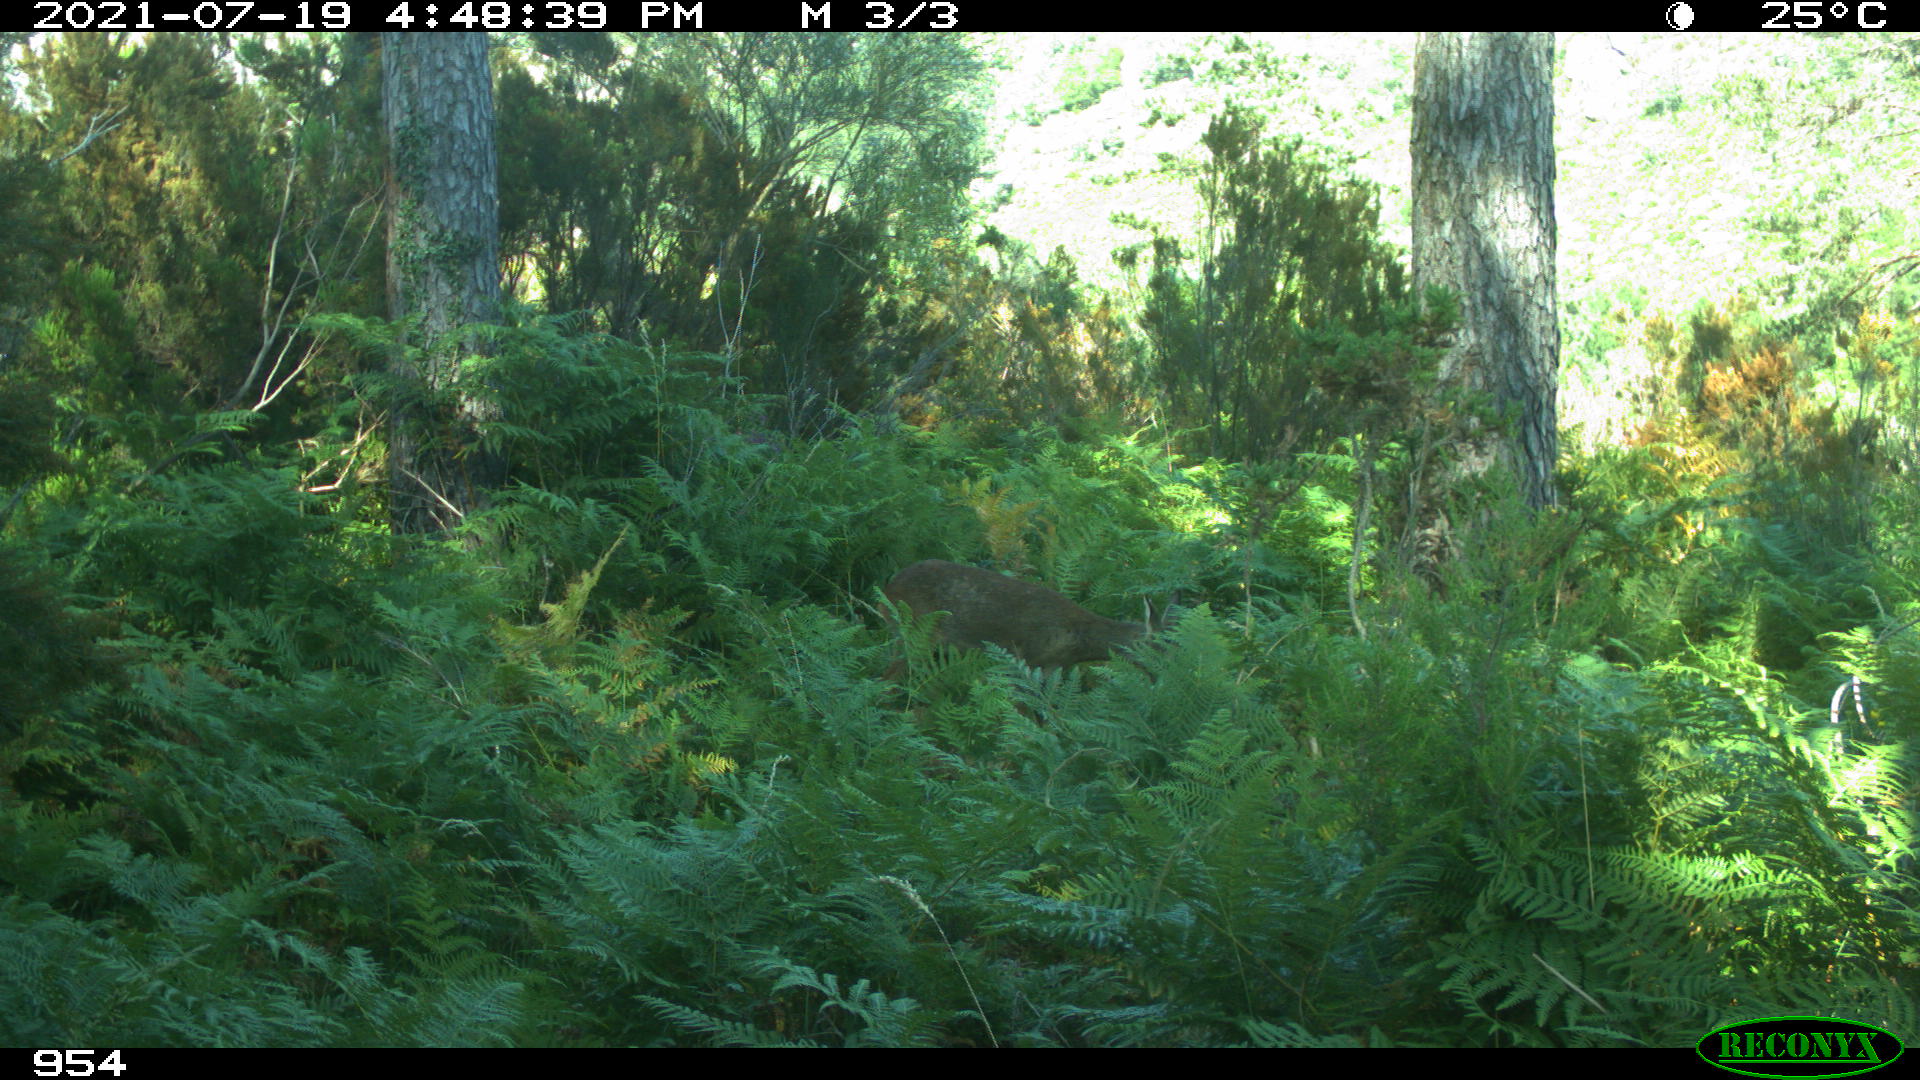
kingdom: Animalia
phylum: Chordata
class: Mammalia
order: Artiodactyla
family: Cervidae
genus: Capreolus
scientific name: Capreolus capreolus
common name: Western roe deer
